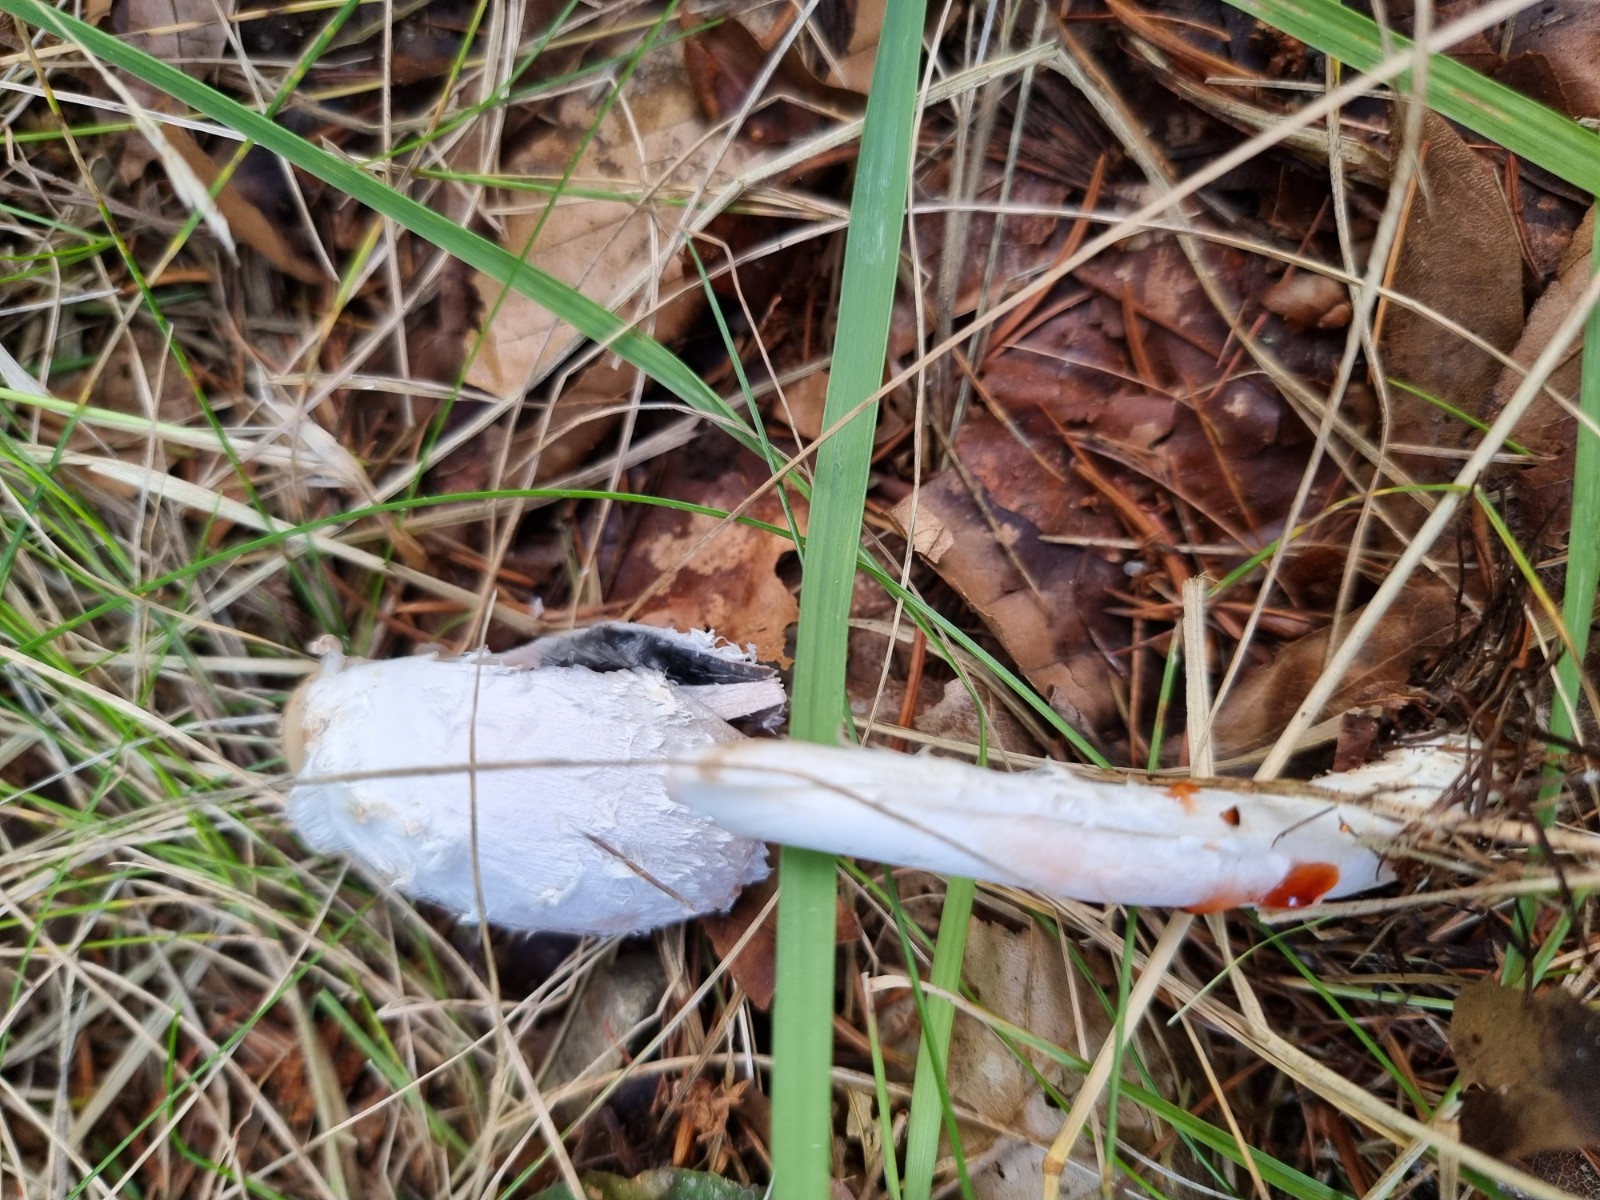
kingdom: Fungi
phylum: Basidiomycota
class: Agaricomycetes
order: Agaricales
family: Agaricaceae
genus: Coprinus
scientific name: Coprinus comatus
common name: stor parykhat
